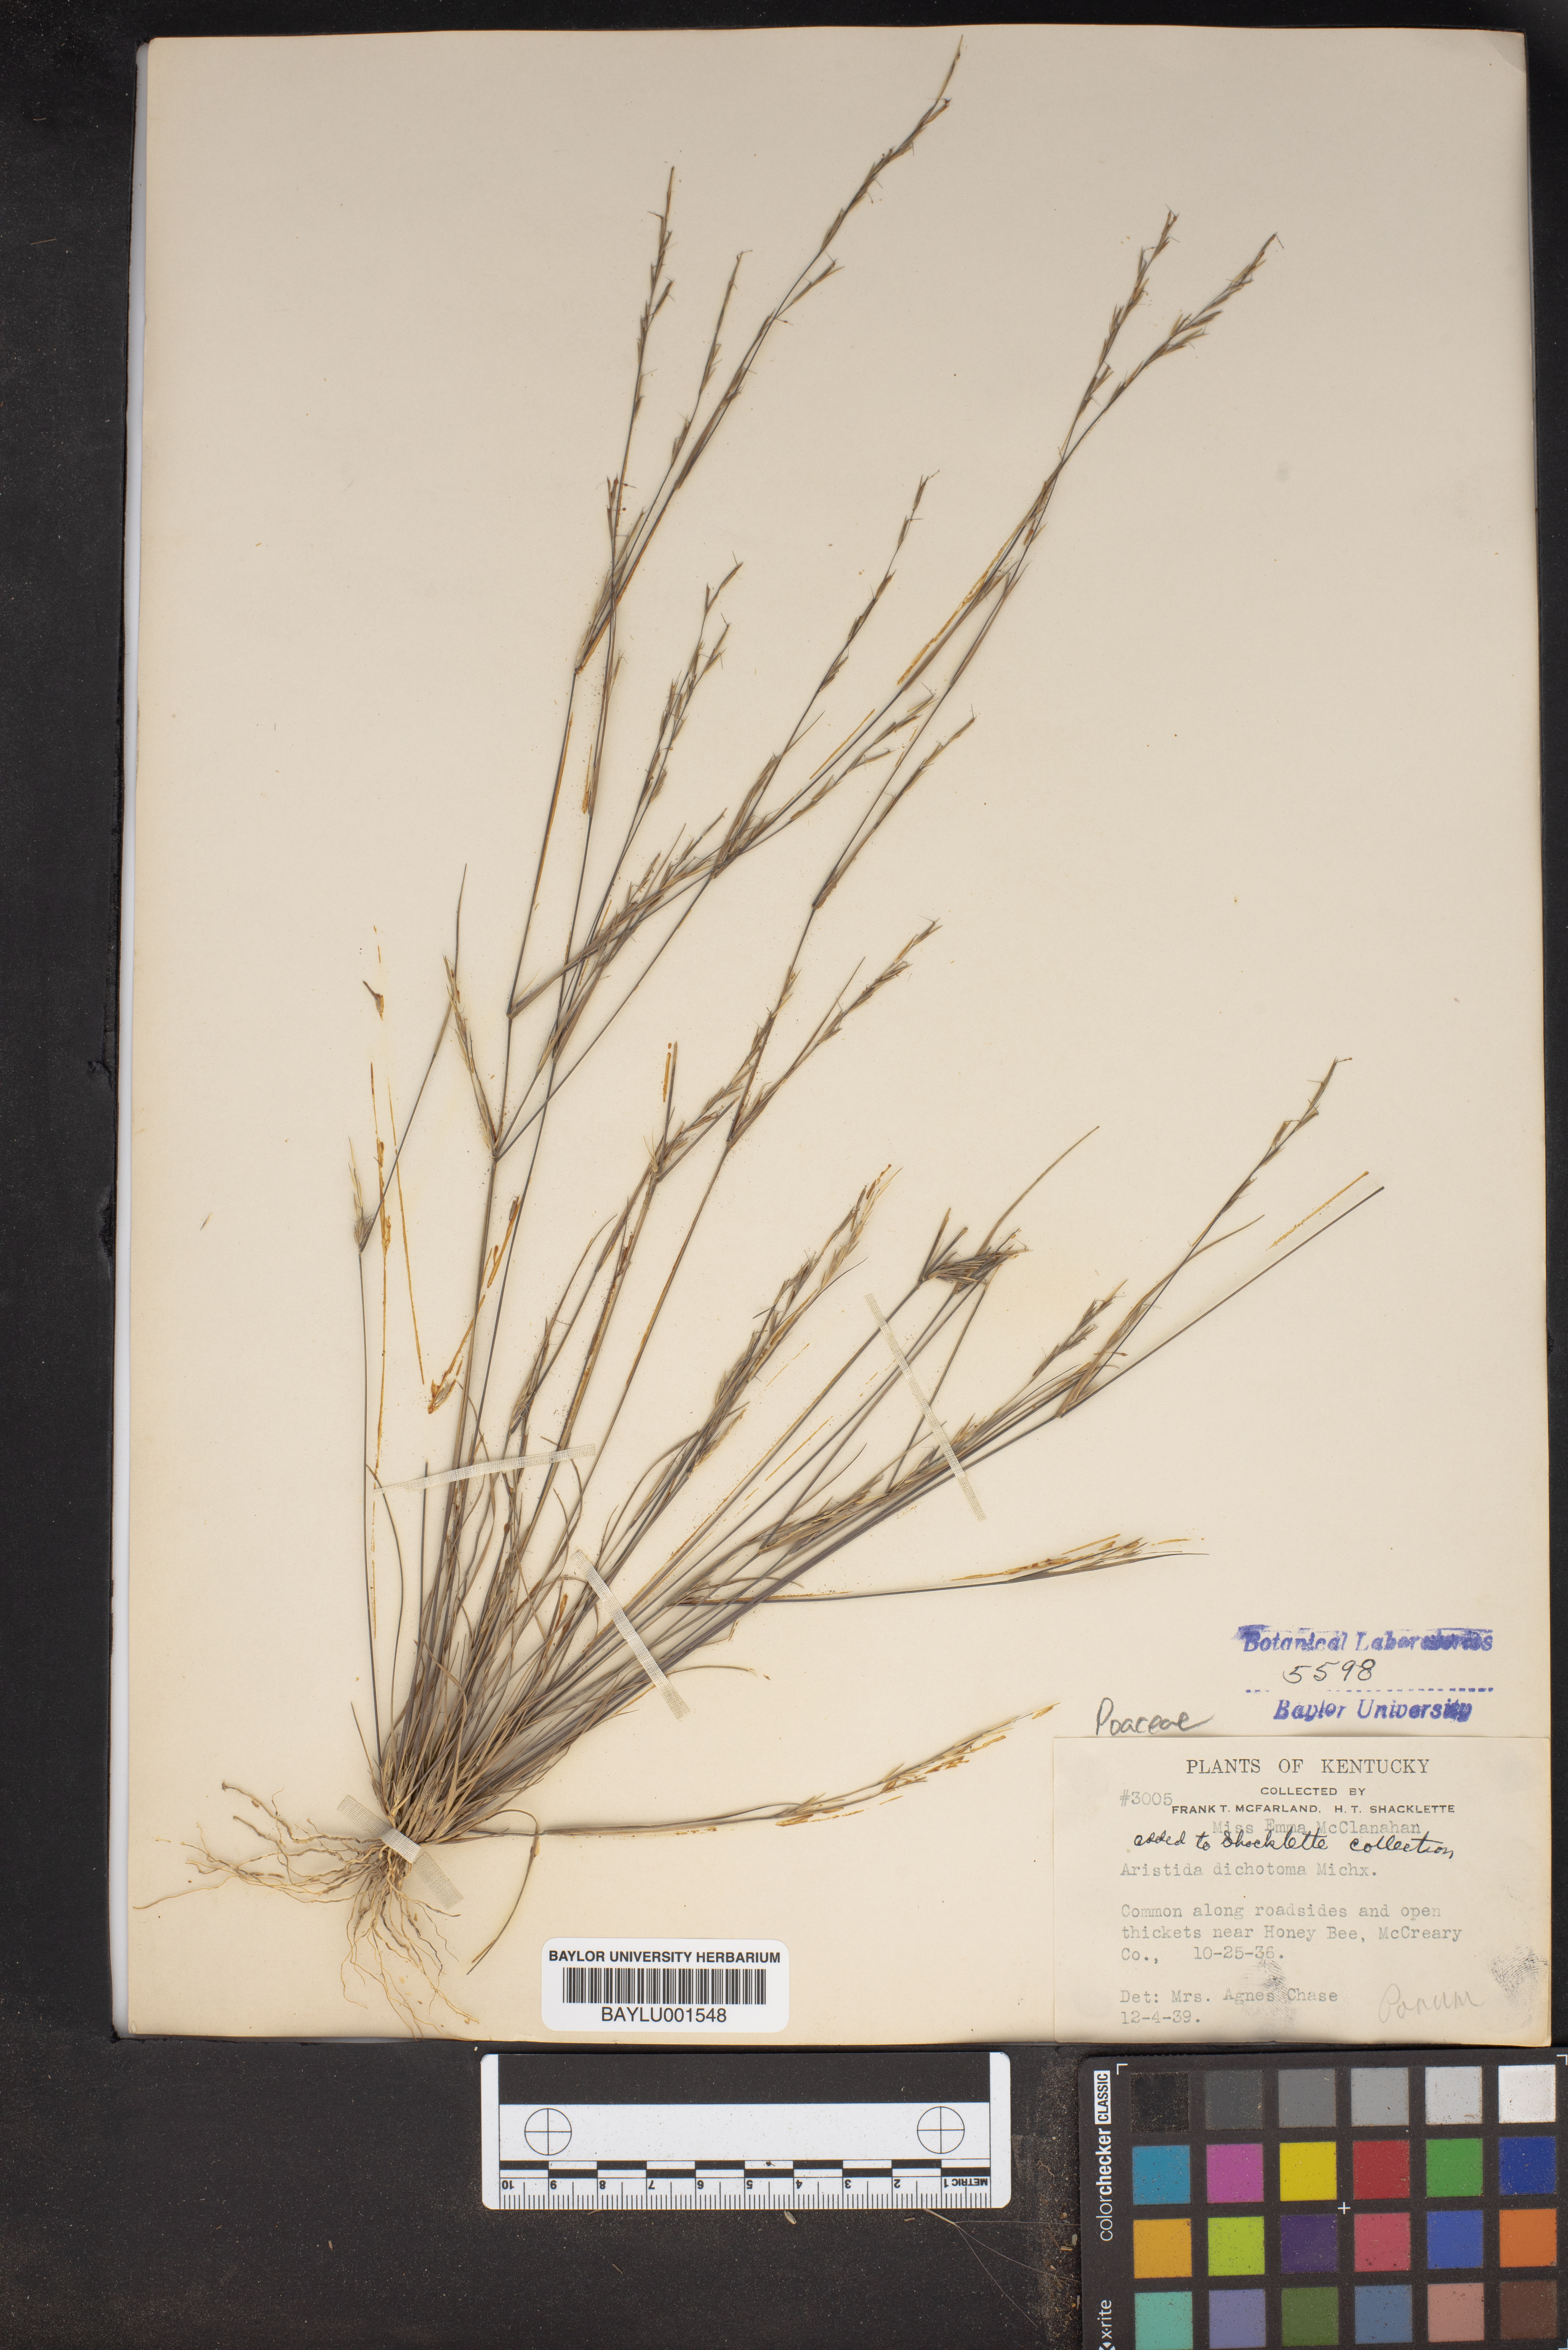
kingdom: Plantae
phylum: Tracheophyta
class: Liliopsida
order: Poales
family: Poaceae
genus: Aristida
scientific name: Aristida dichotoma
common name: Churchmouse three-awn
